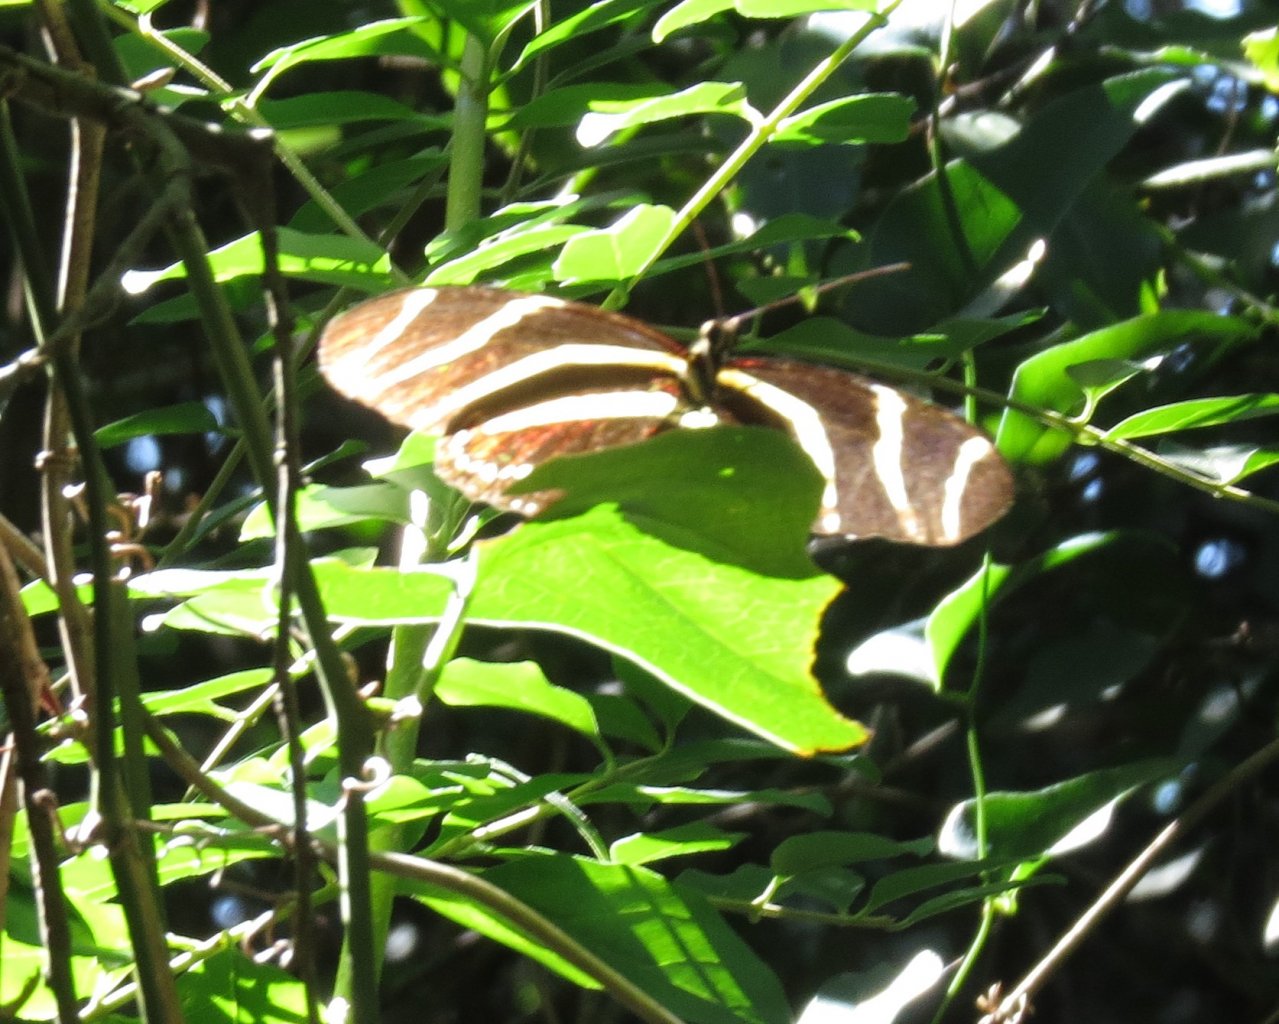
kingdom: Animalia
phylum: Arthropoda
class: Insecta
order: Lepidoptera
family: Papilionidae
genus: Protographium
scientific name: Protographium marcellus
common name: Zebra Swallowtail
